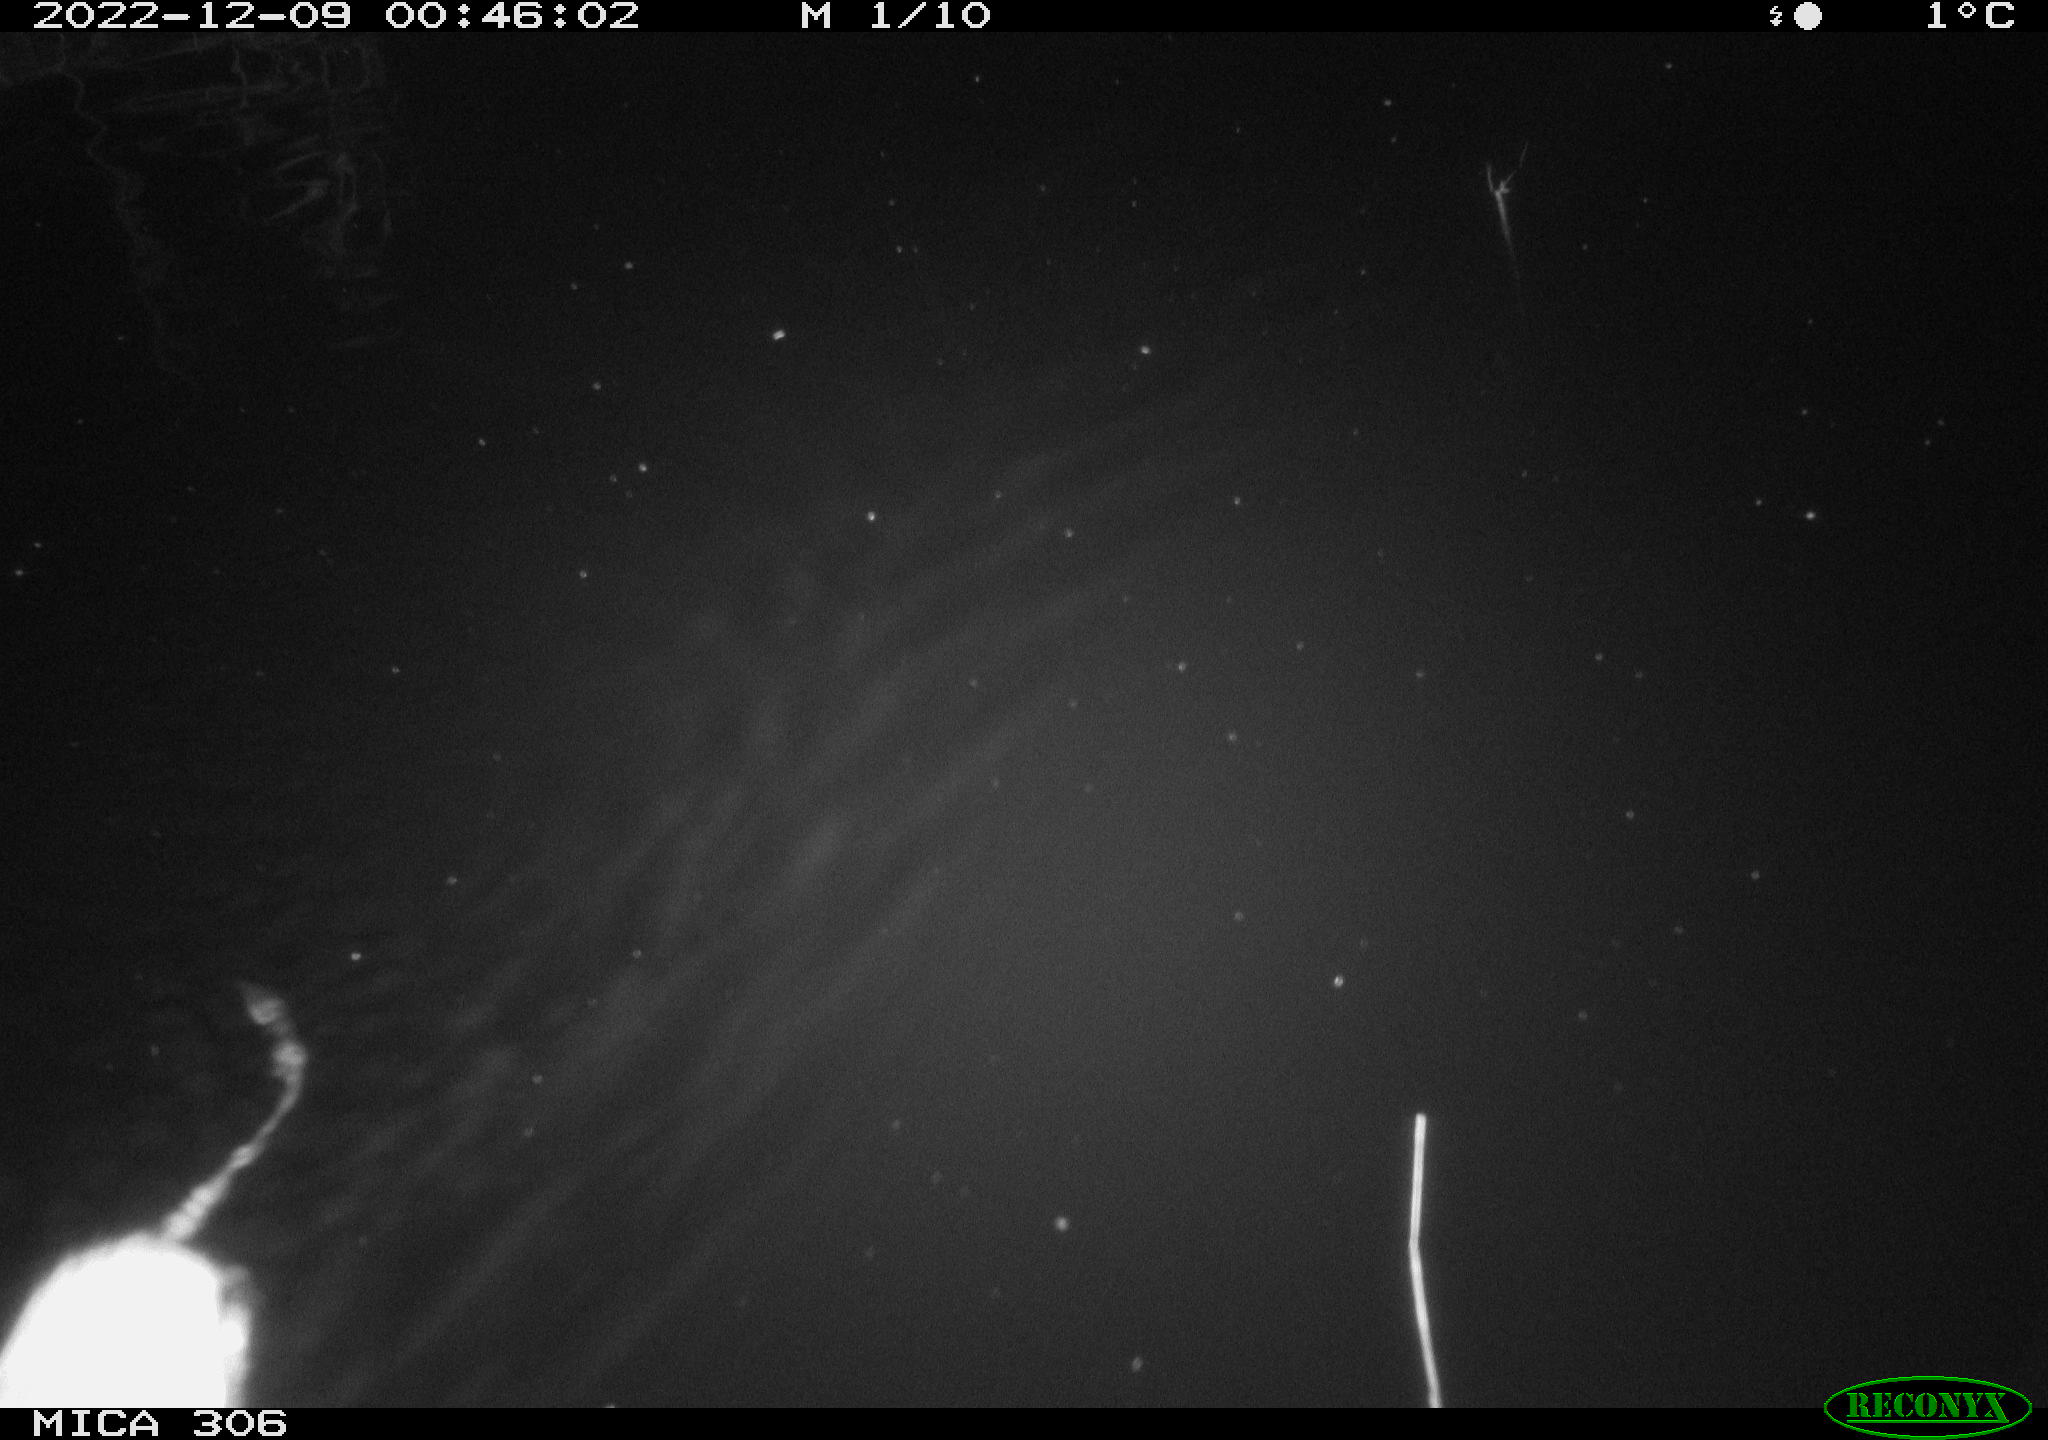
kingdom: Animalia
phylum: Chordata
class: Mammalia
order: Rodentia
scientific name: Rodentia
